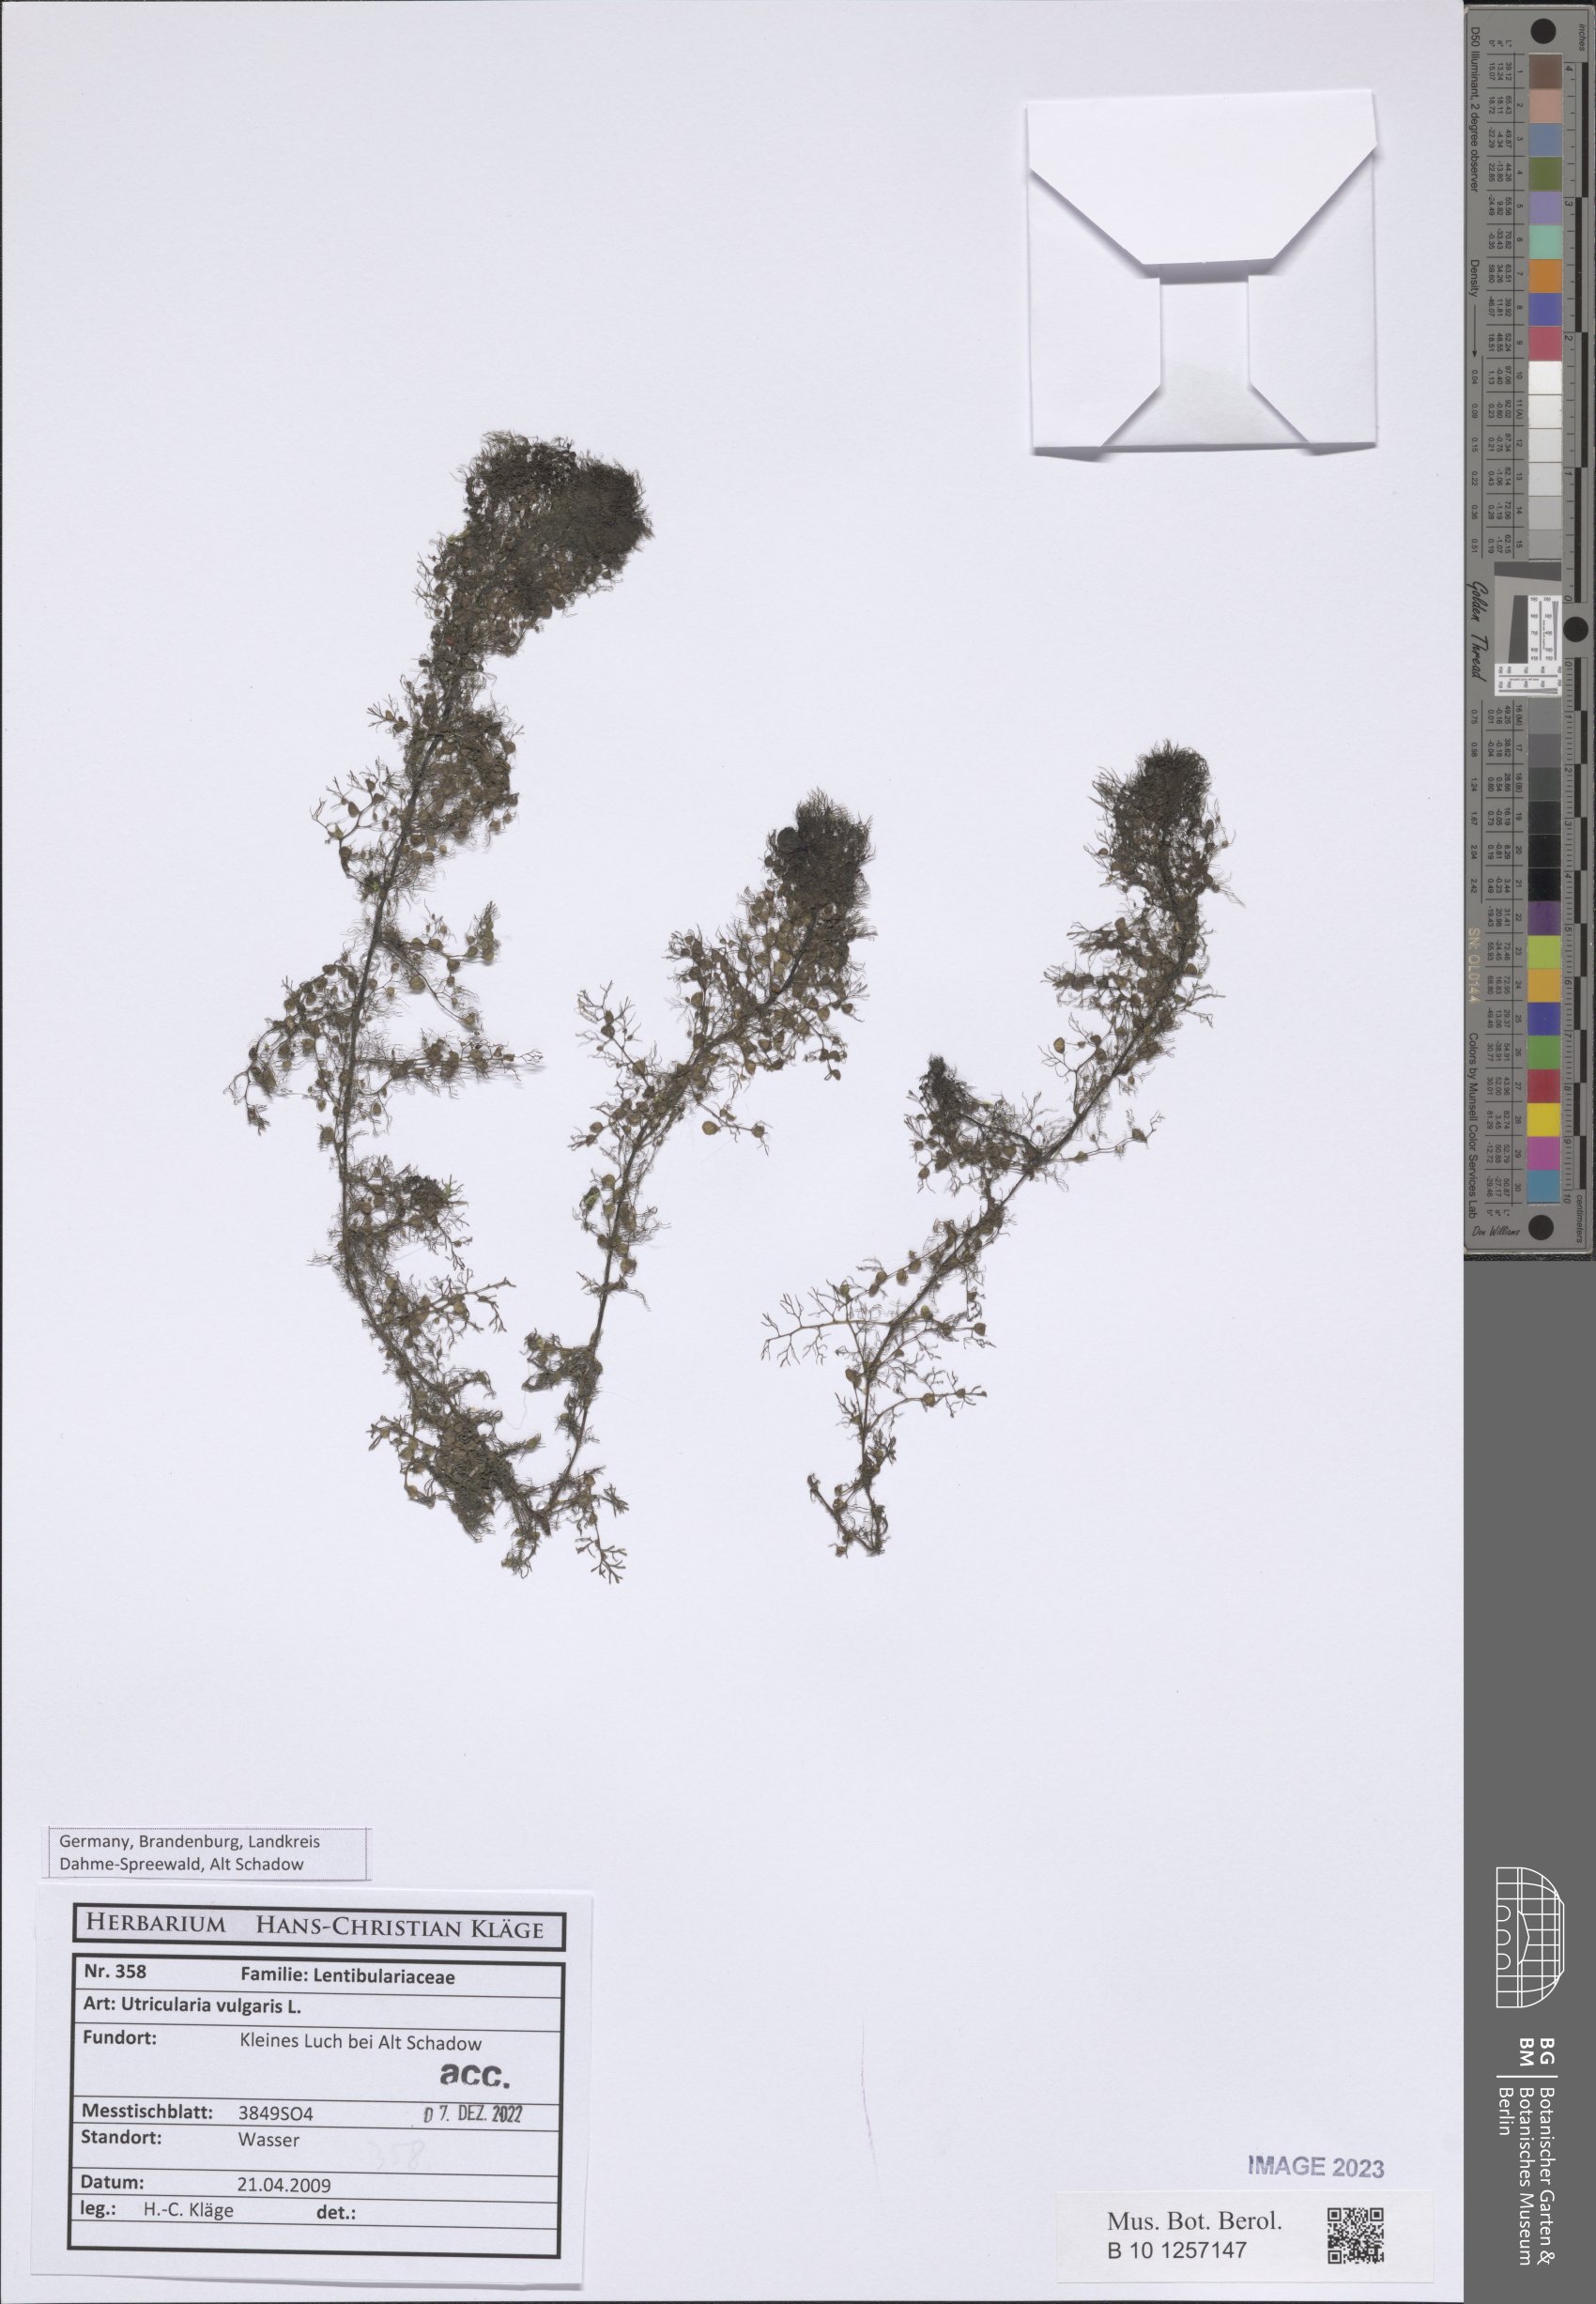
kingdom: Plantae
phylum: Tracheophyta
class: Magnoliopsida
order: Lamiales
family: Lentibulariaceae
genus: Utricularia
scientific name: Utricularia vulgaris
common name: Greater bladderwort
